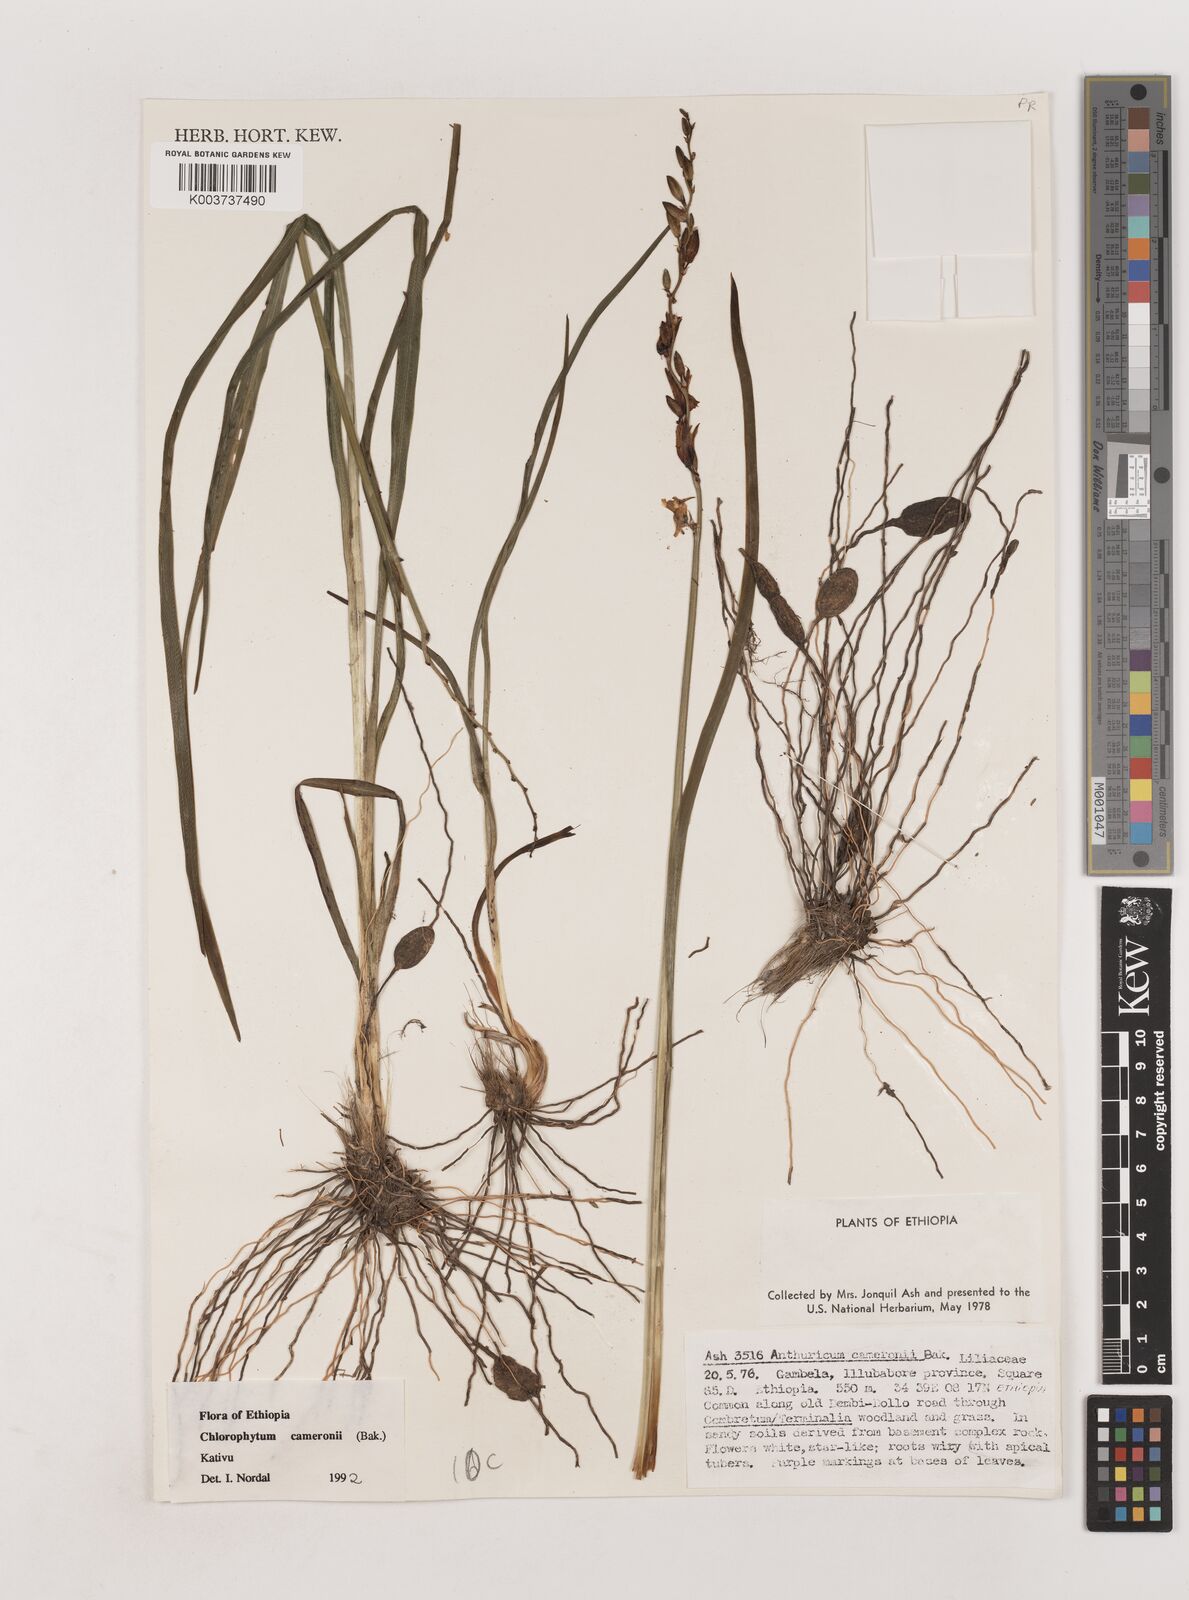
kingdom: Plantae
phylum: Tracheophyta
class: Liliopsida
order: Asparagales
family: Asparagaceae
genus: Chlorophytum
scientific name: Chlorophytum cameronii
